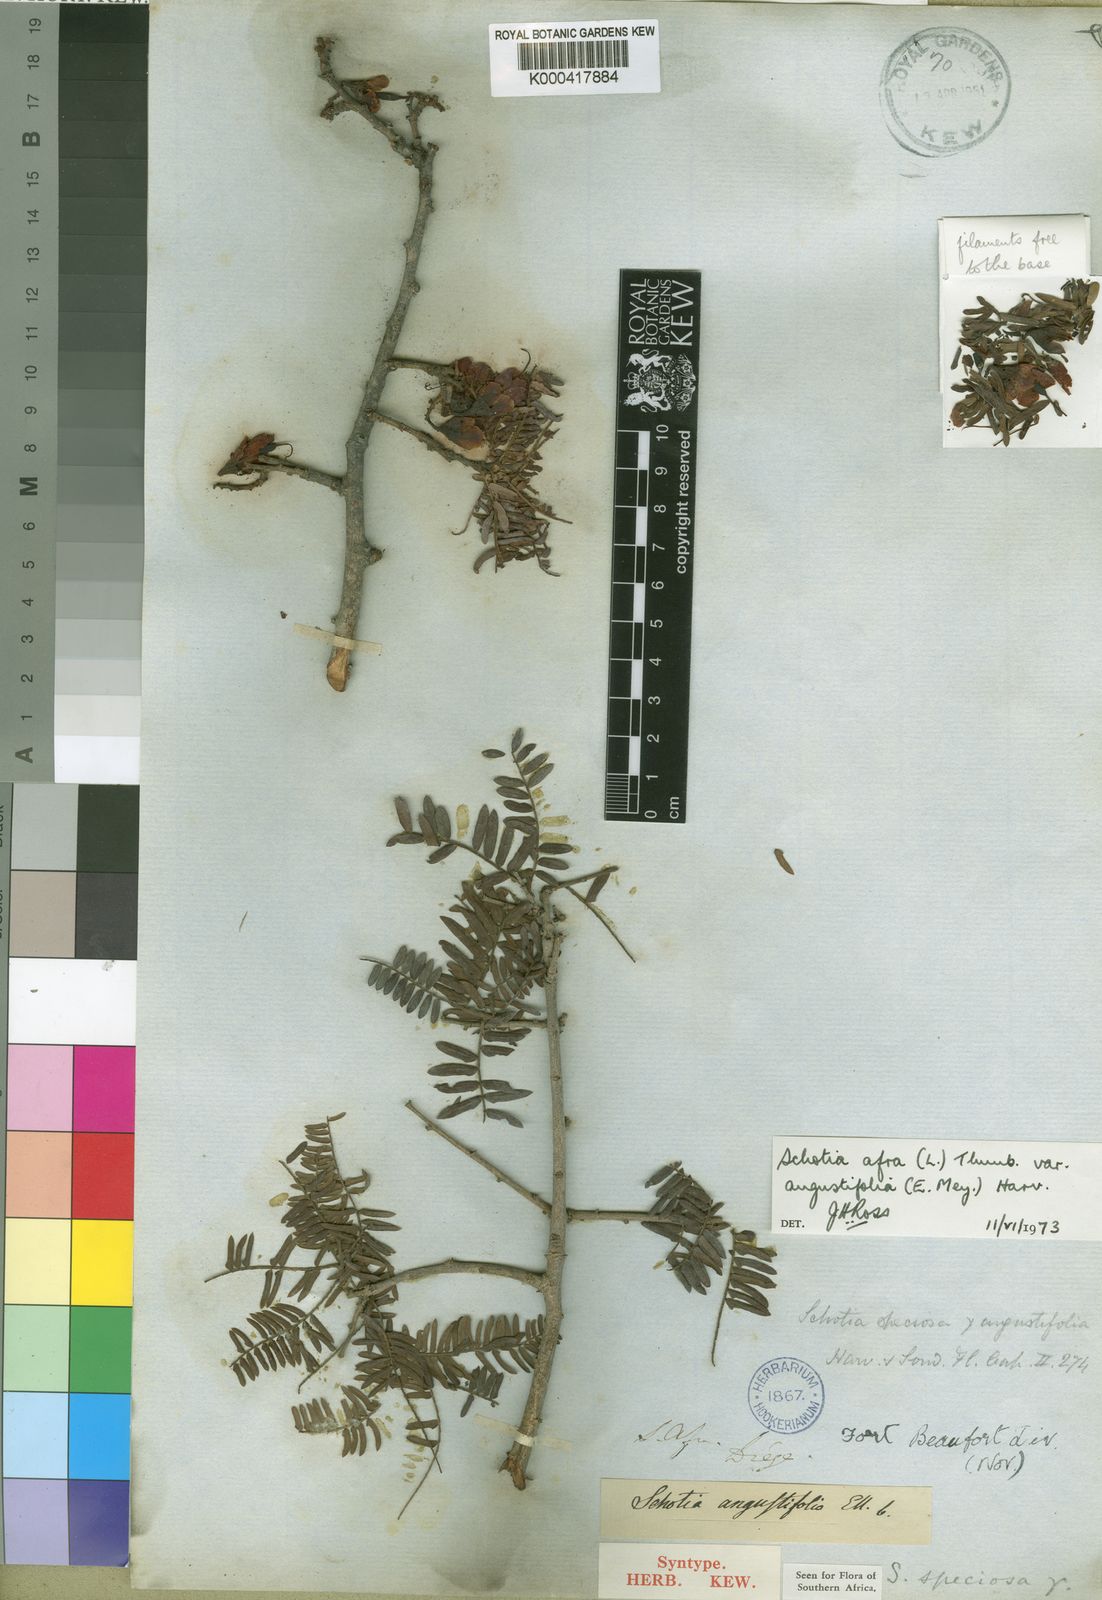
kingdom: Plantae
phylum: Tracheophyta
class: Magnoliopsida
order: Fabales
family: Fabaceae
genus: Schotia
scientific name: Schotia afra
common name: Hottentot's bean
